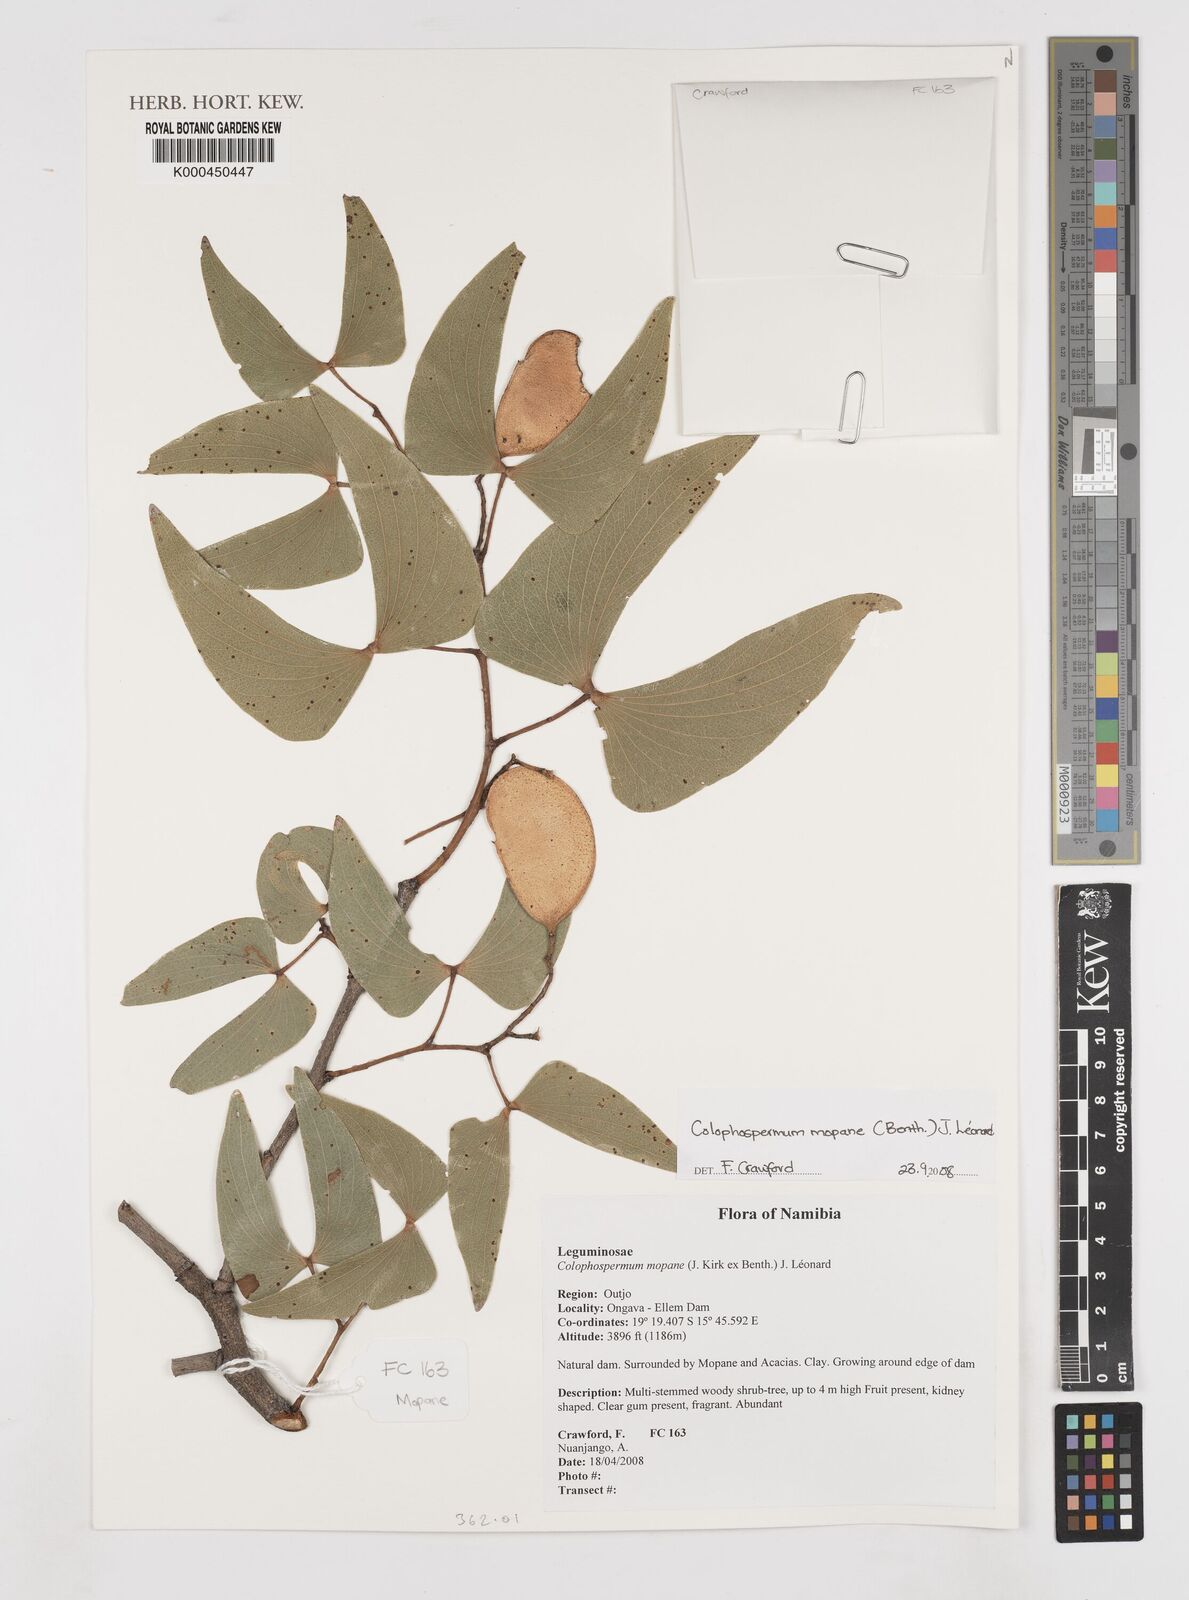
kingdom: Plantae
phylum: Tracheophyta
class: Magnoliopsida
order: Fabales
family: Fabaceae
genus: Colophospermum
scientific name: Colophospermum
